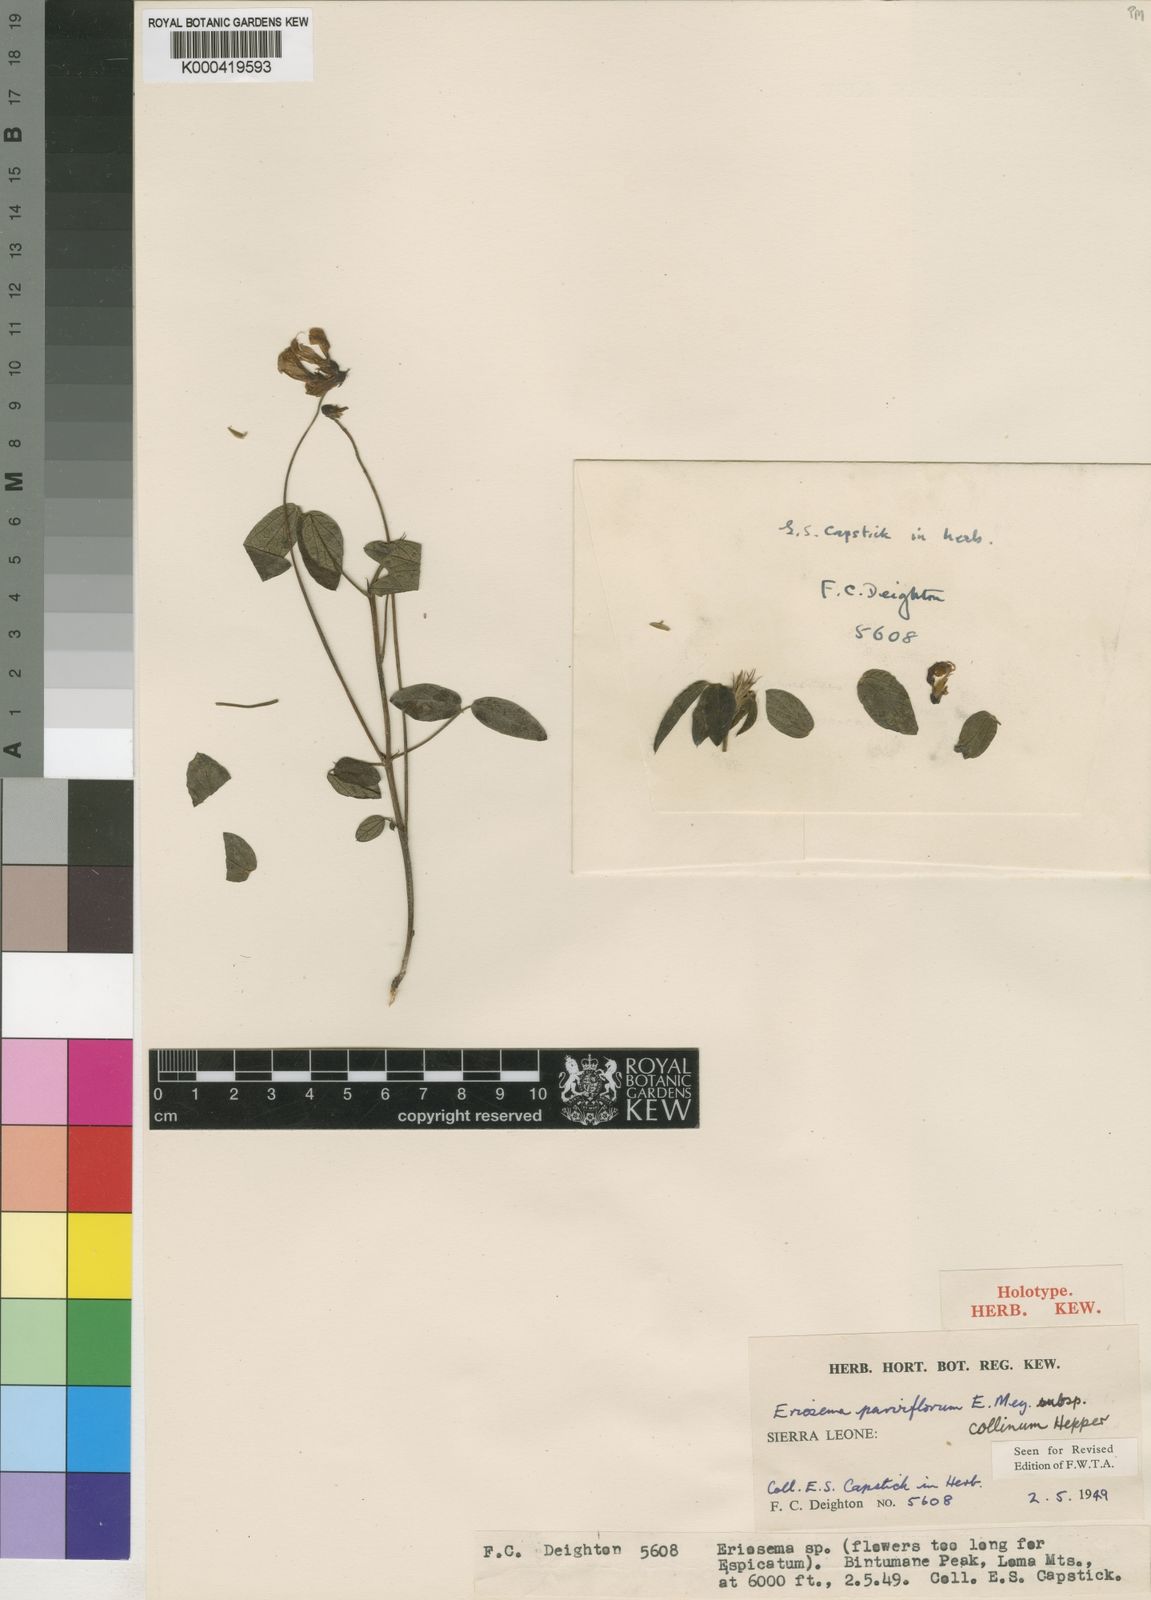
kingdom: Plantae
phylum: Tracheophyta
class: Magnoliopsida
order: Fabales
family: Fabaceae
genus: Eriosema
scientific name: Eriosema parviflorum
